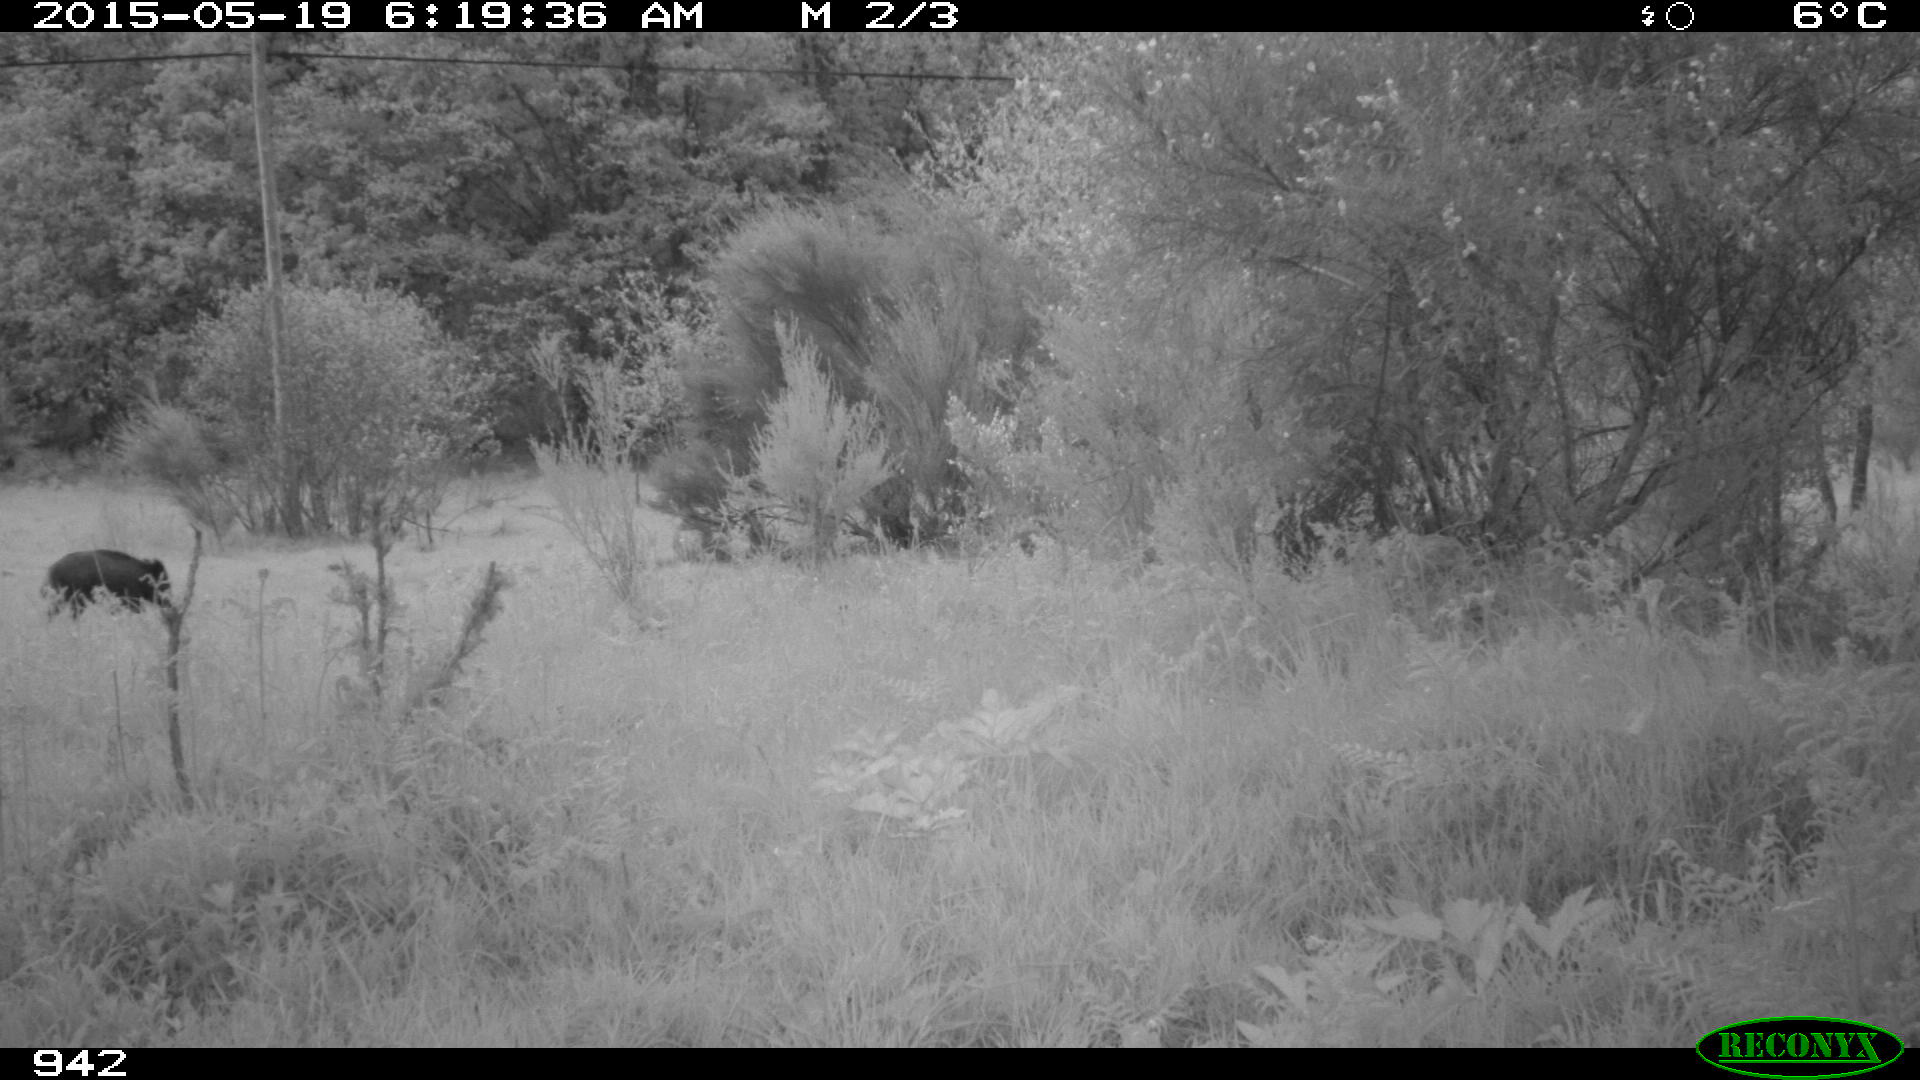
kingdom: Animalia
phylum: Chordata
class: Mammalia
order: Artiodactyla
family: Suidae
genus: Sus
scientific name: Sus scrofa
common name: Wild boar
